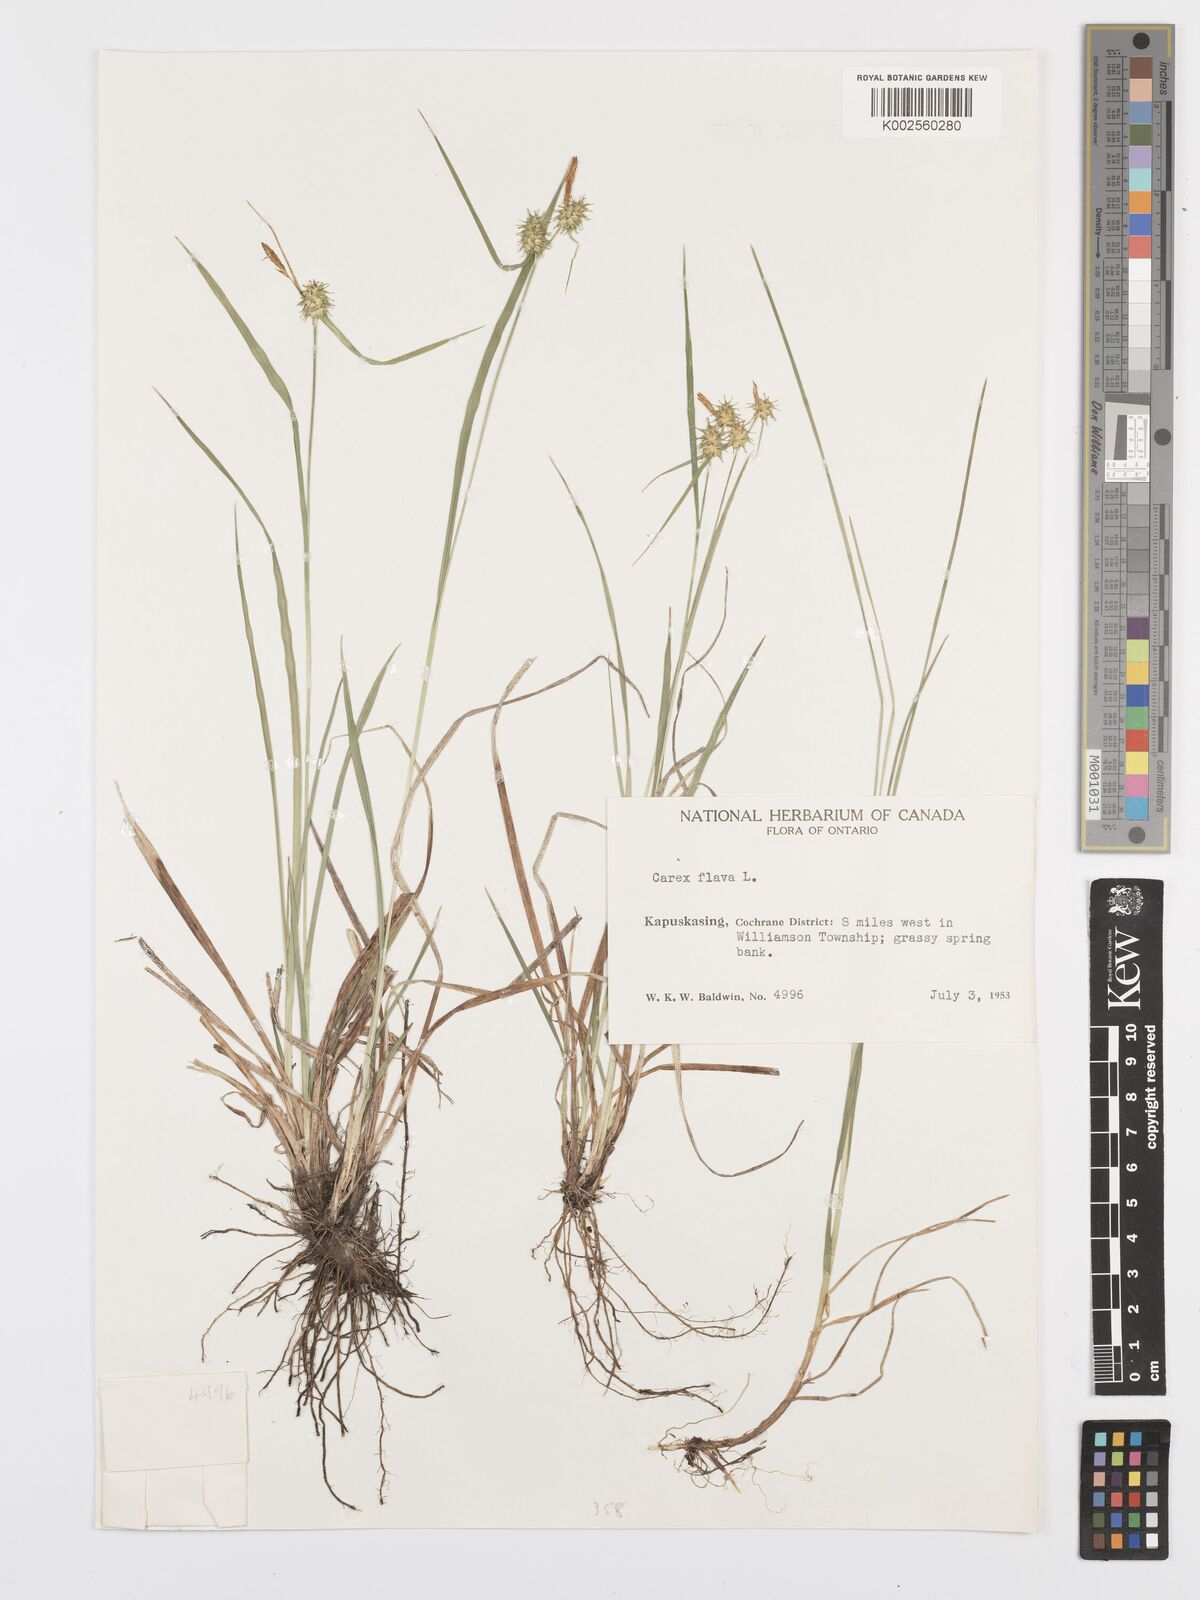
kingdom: Plantae
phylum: Tracheophyta
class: Liliopsida
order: Poales
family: Cyperaceae
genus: Carex
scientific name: Carex flava
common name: Large yellow-sedge
